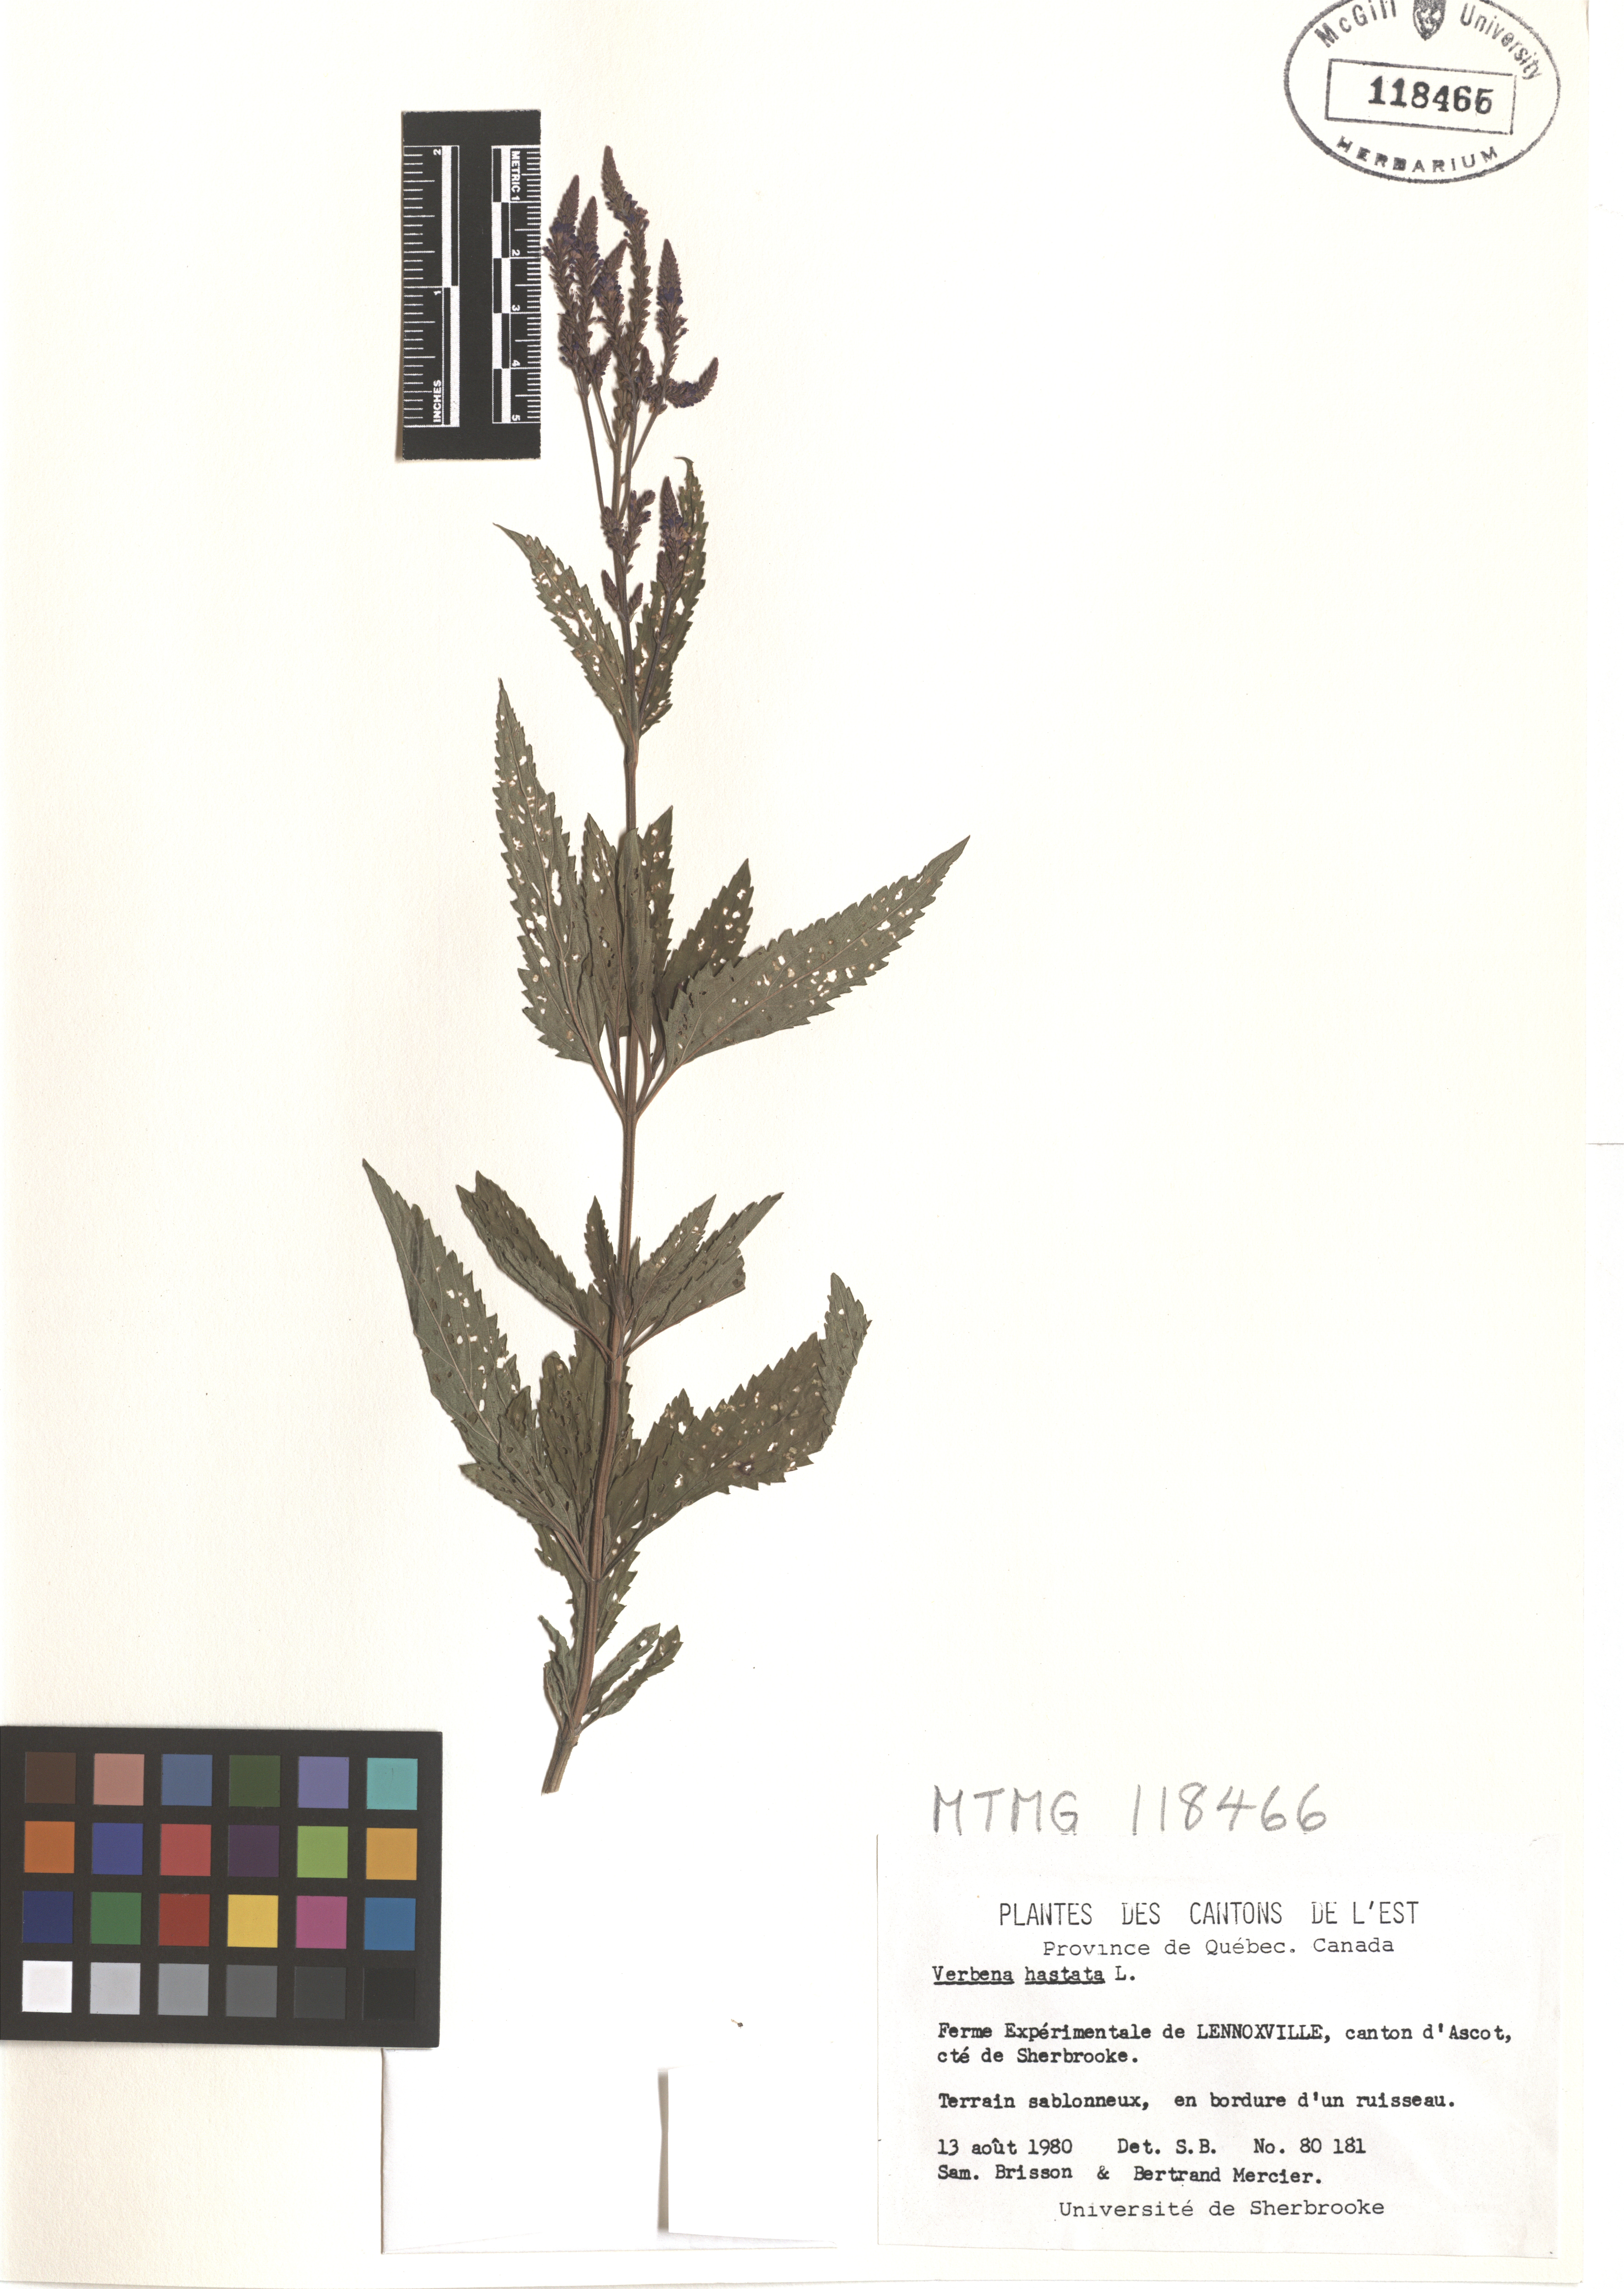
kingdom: Plantae
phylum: Tracheophyta
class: Magnoliopsida
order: Lamiales
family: Verbenaceae
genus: Verbena
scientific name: Verbena hastata
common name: American blue vervain
